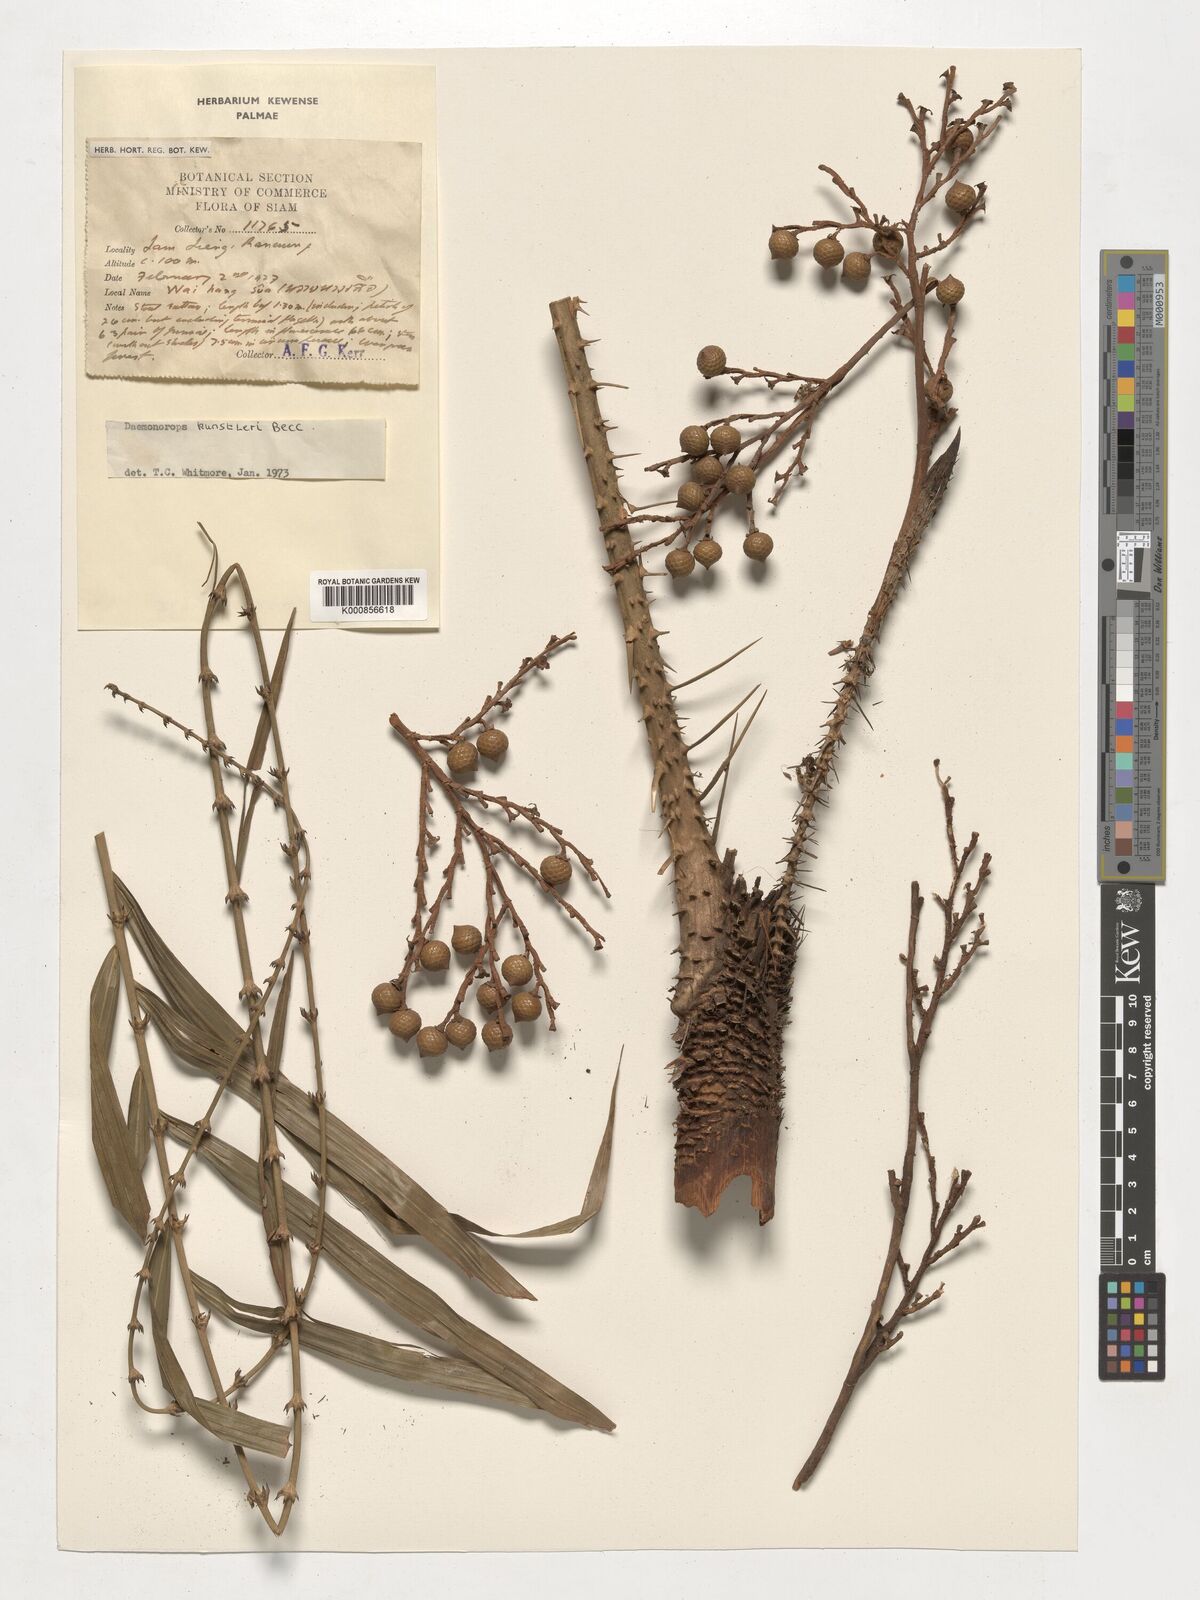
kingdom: Plantae
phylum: Tracheophyta
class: Liliopsida
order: Arecales
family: Arecaceae
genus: Calamus
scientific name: Calamus kunstleri
